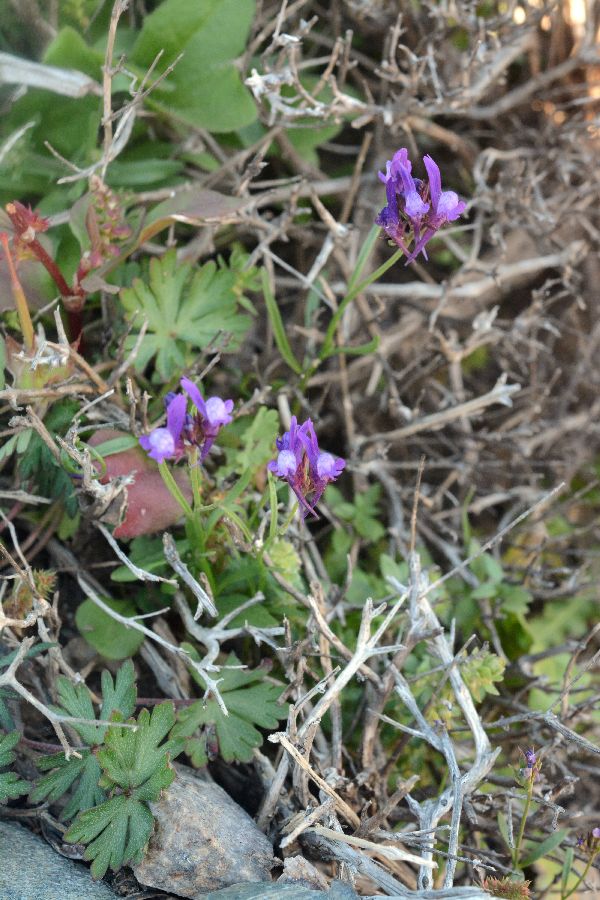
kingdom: Plantae
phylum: Tracheophyta
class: Magnoliopsida
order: Lamiales
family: Plantaginaceae
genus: Linaria
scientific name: Linaria pelisseriana
